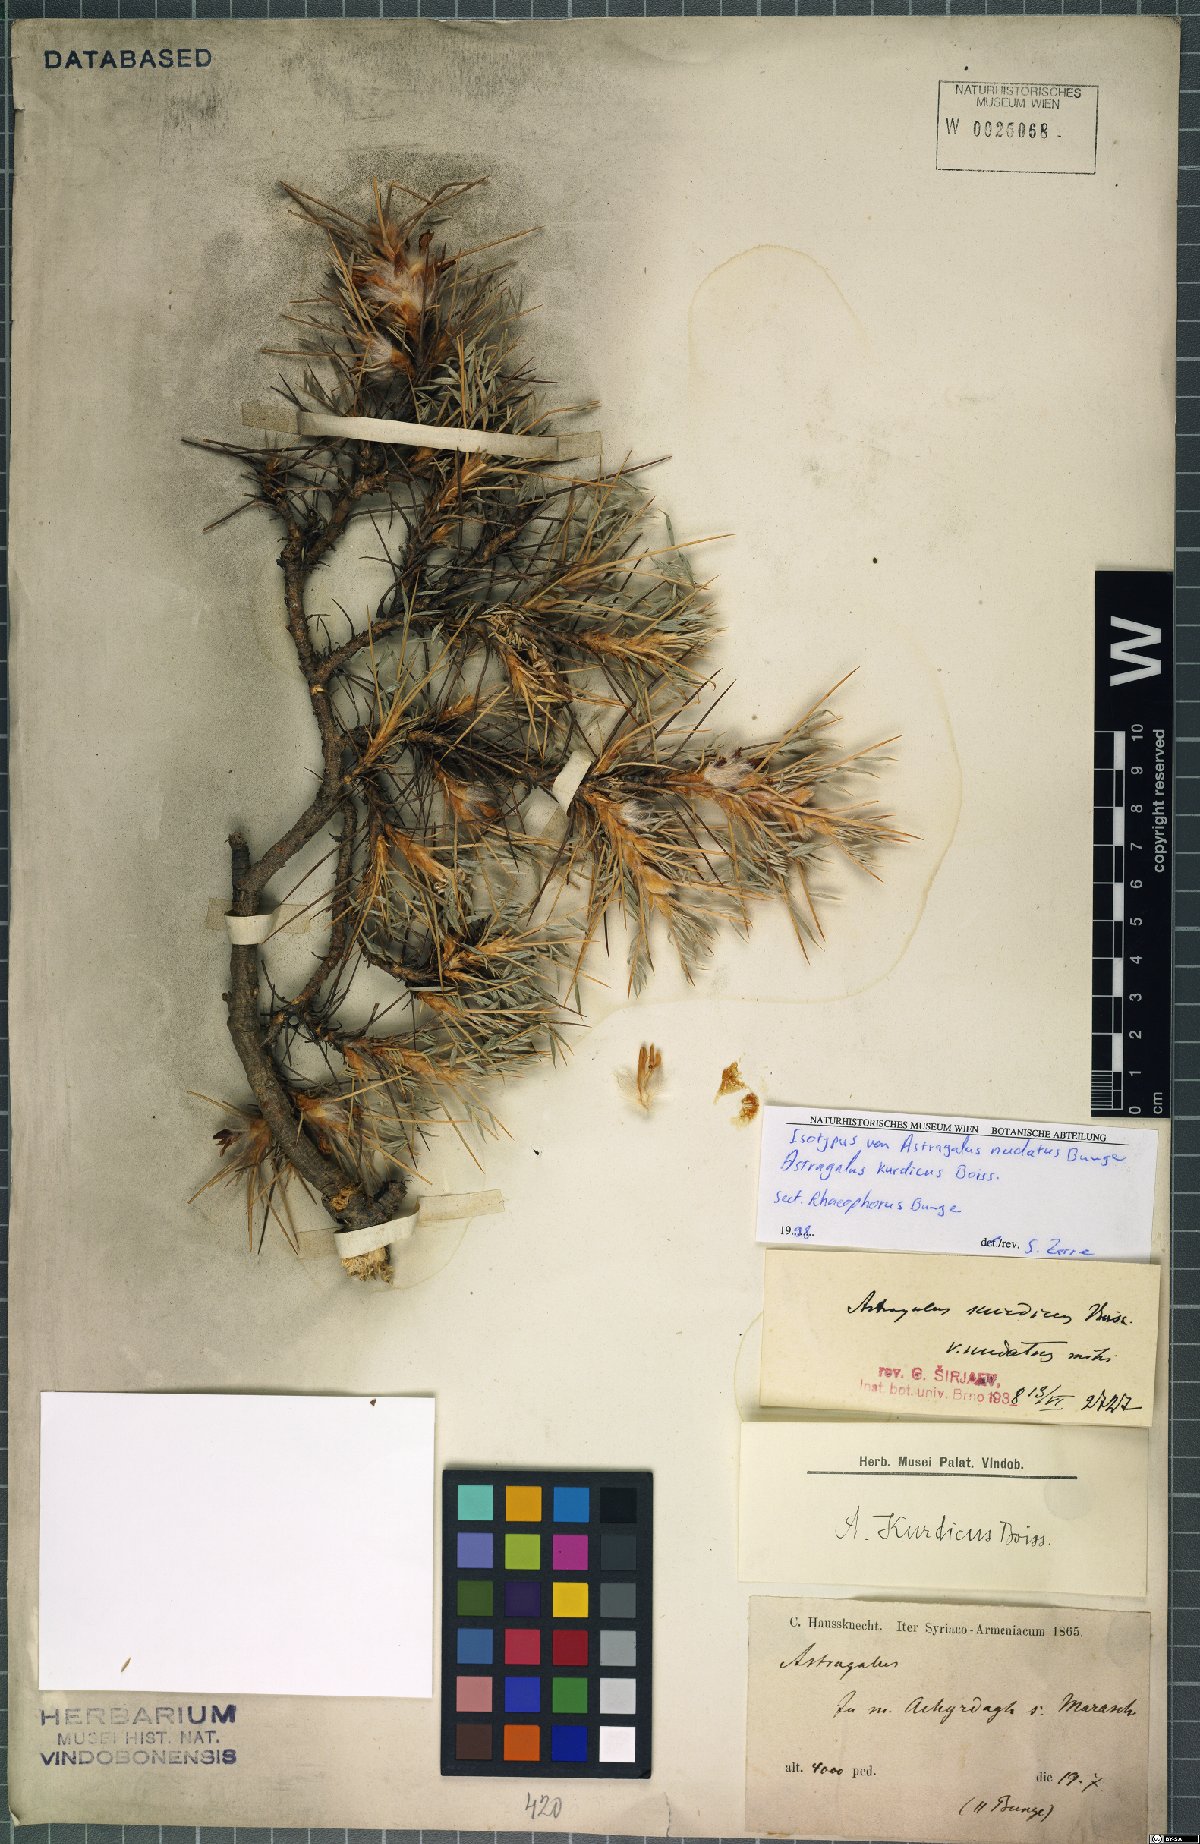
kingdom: Plantae
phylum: Tracheophyta
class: Magnoliopsida
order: Fabales
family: Fabaceae
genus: Astragalus
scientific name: Astragalus kurdicus
